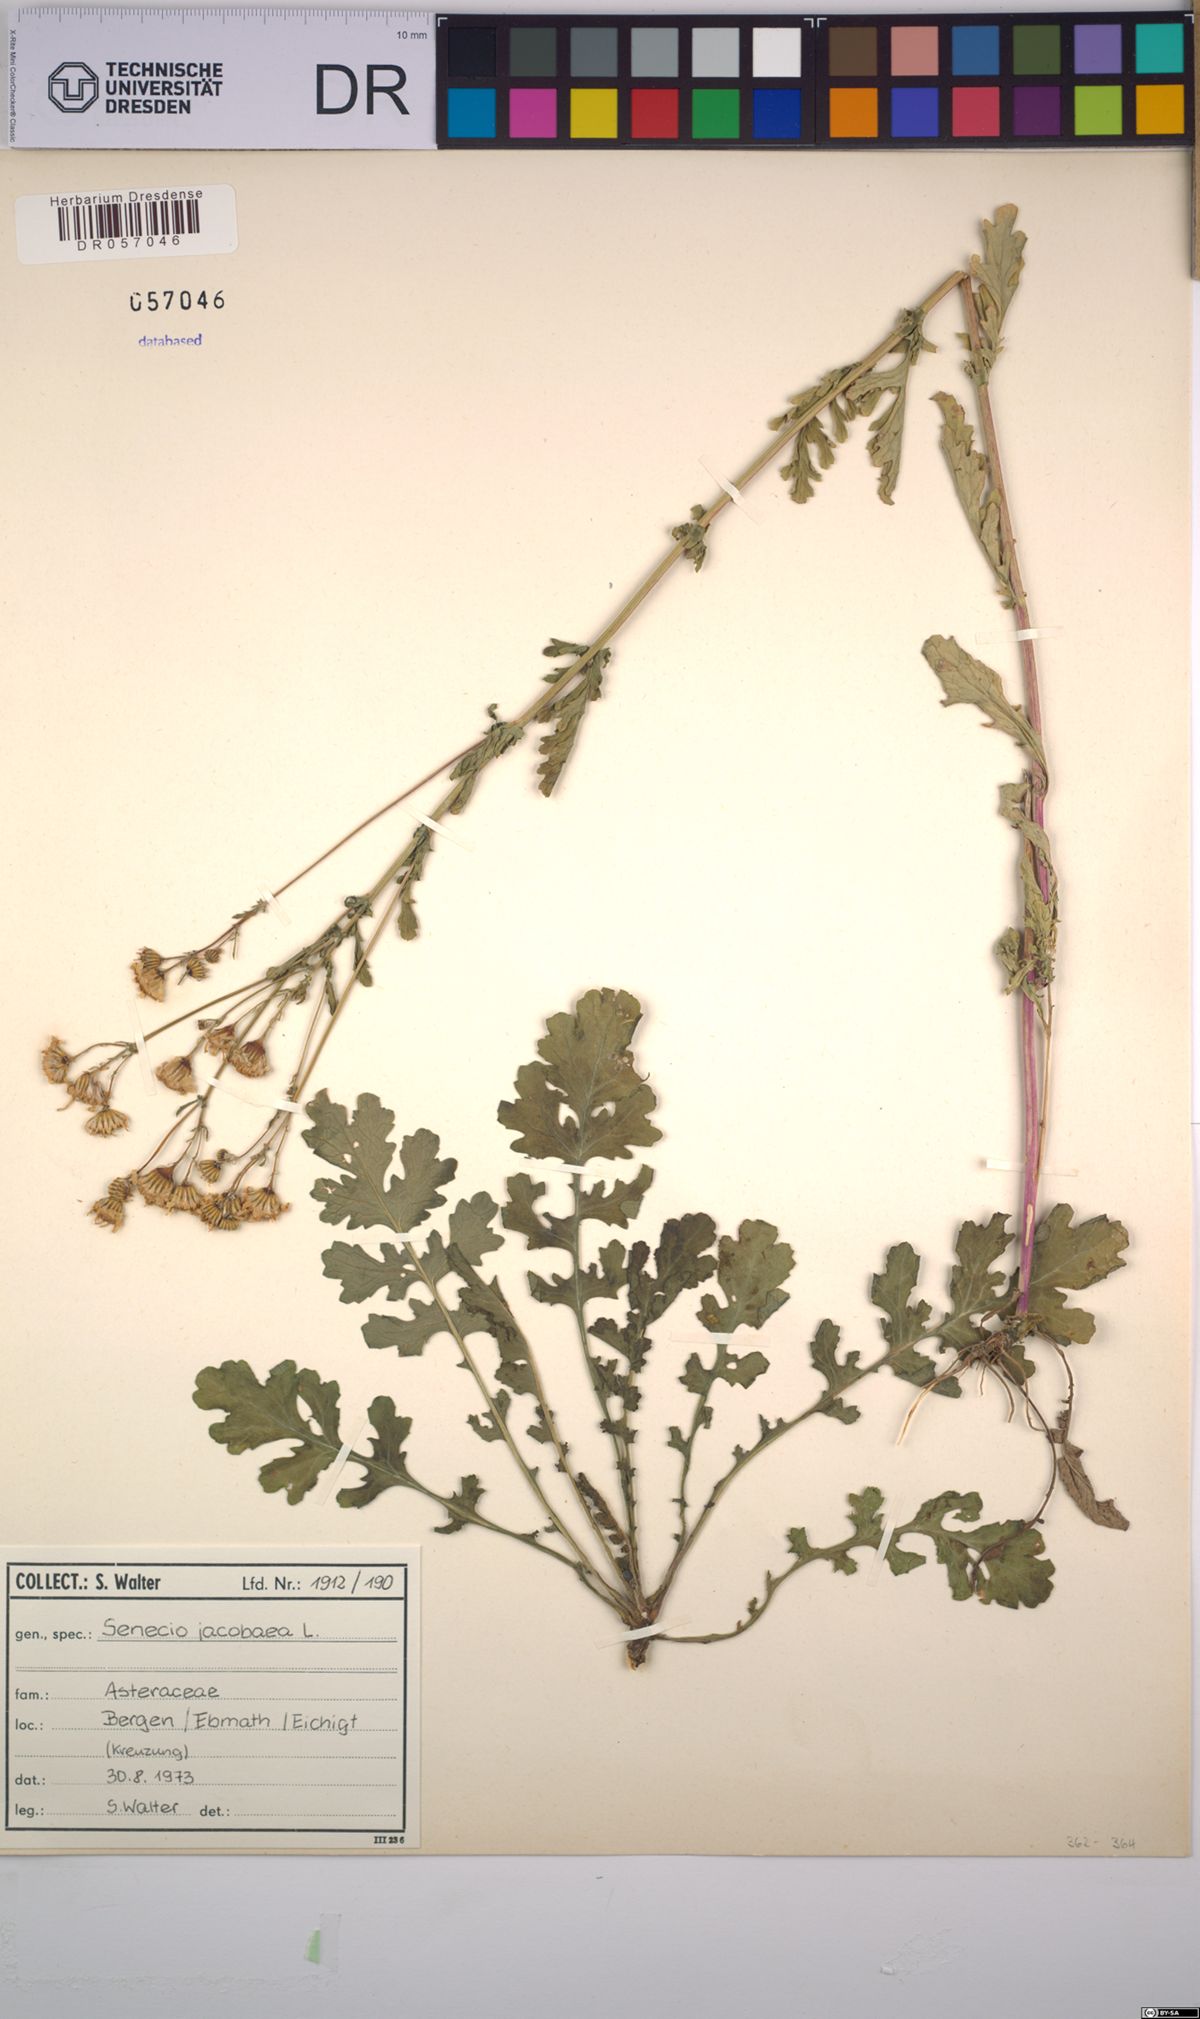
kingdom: Plantae
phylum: Tracheophyta
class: Magnoliopsida
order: Asterales
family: Asteraceae
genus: Jacobaea
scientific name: Jacobaea vulgaris
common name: Stinking willie
